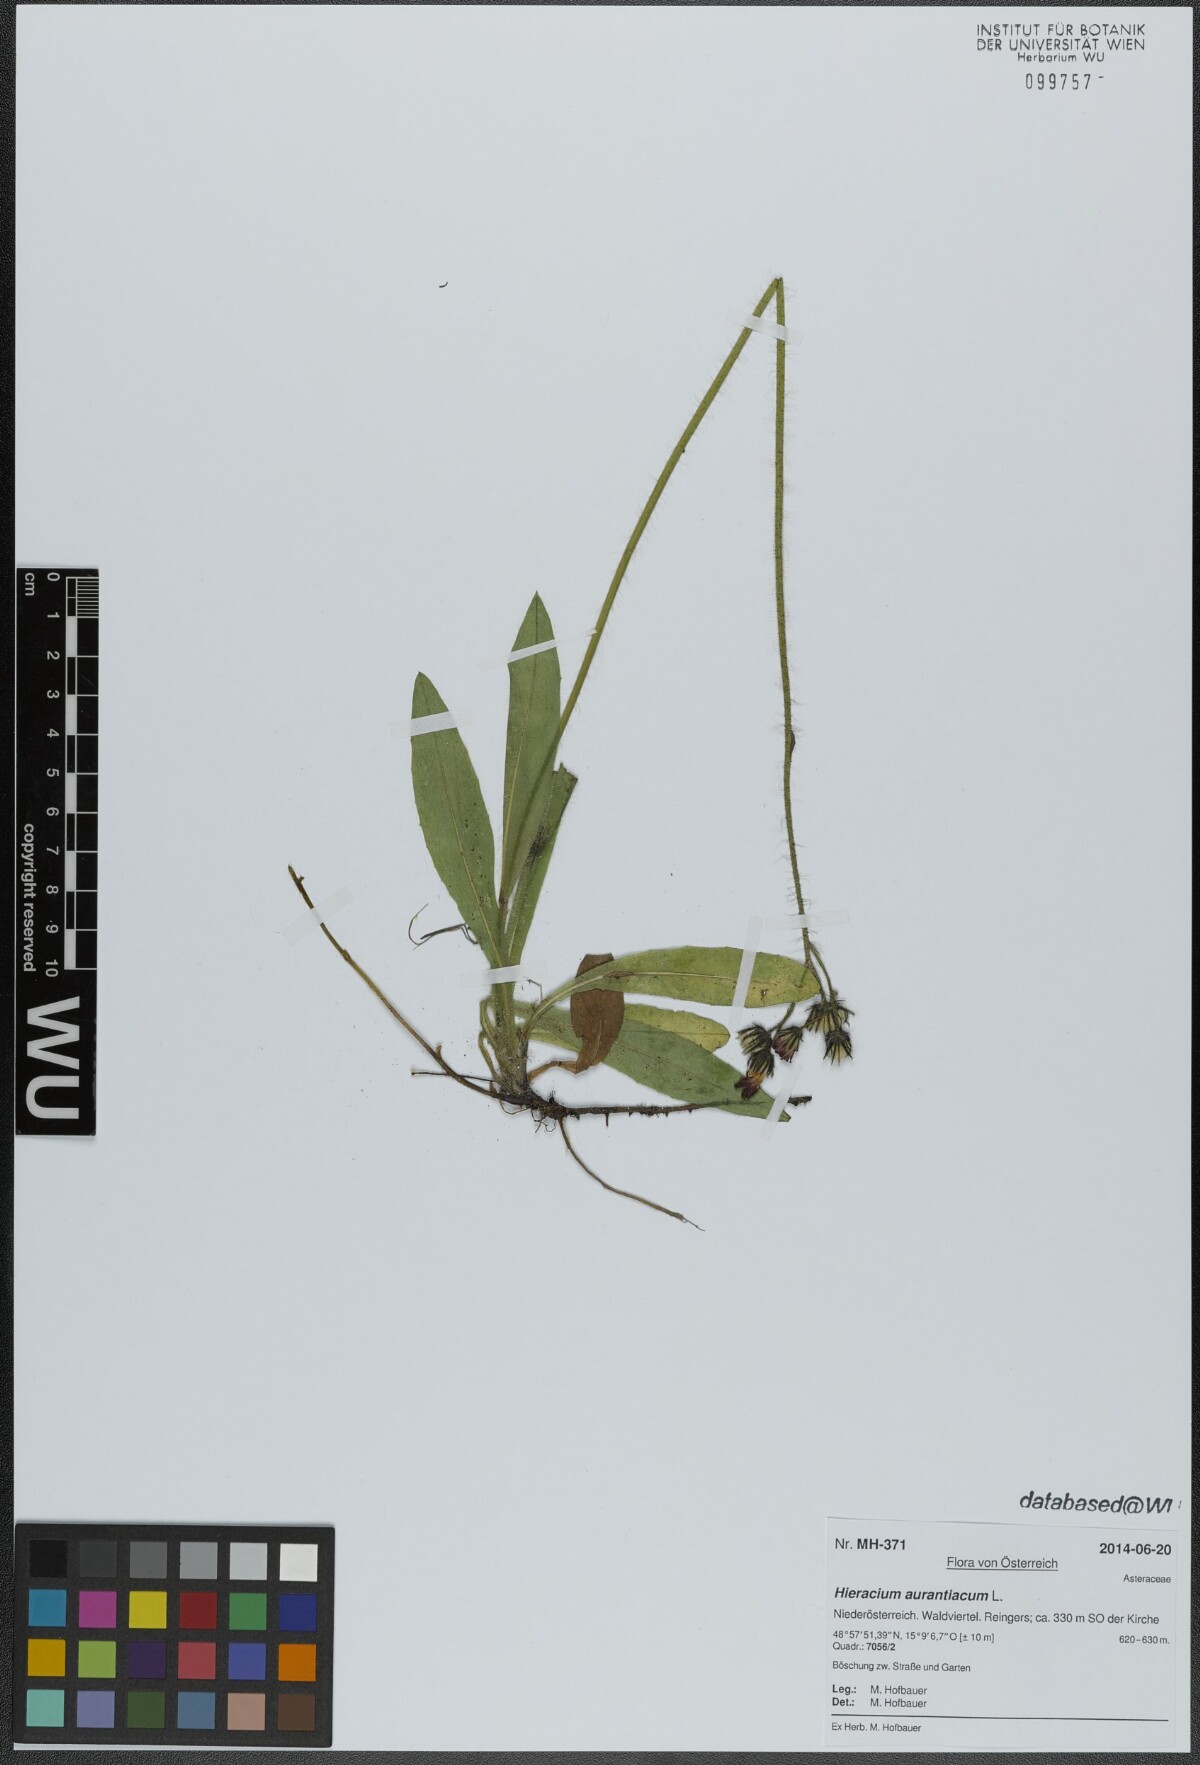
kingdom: Plantae
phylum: Tracheophyta
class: Magnoliopsida
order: Asterales
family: Asteraceae
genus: Pilosella
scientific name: Pilosella aurantiaca
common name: Fox-and-cubs
